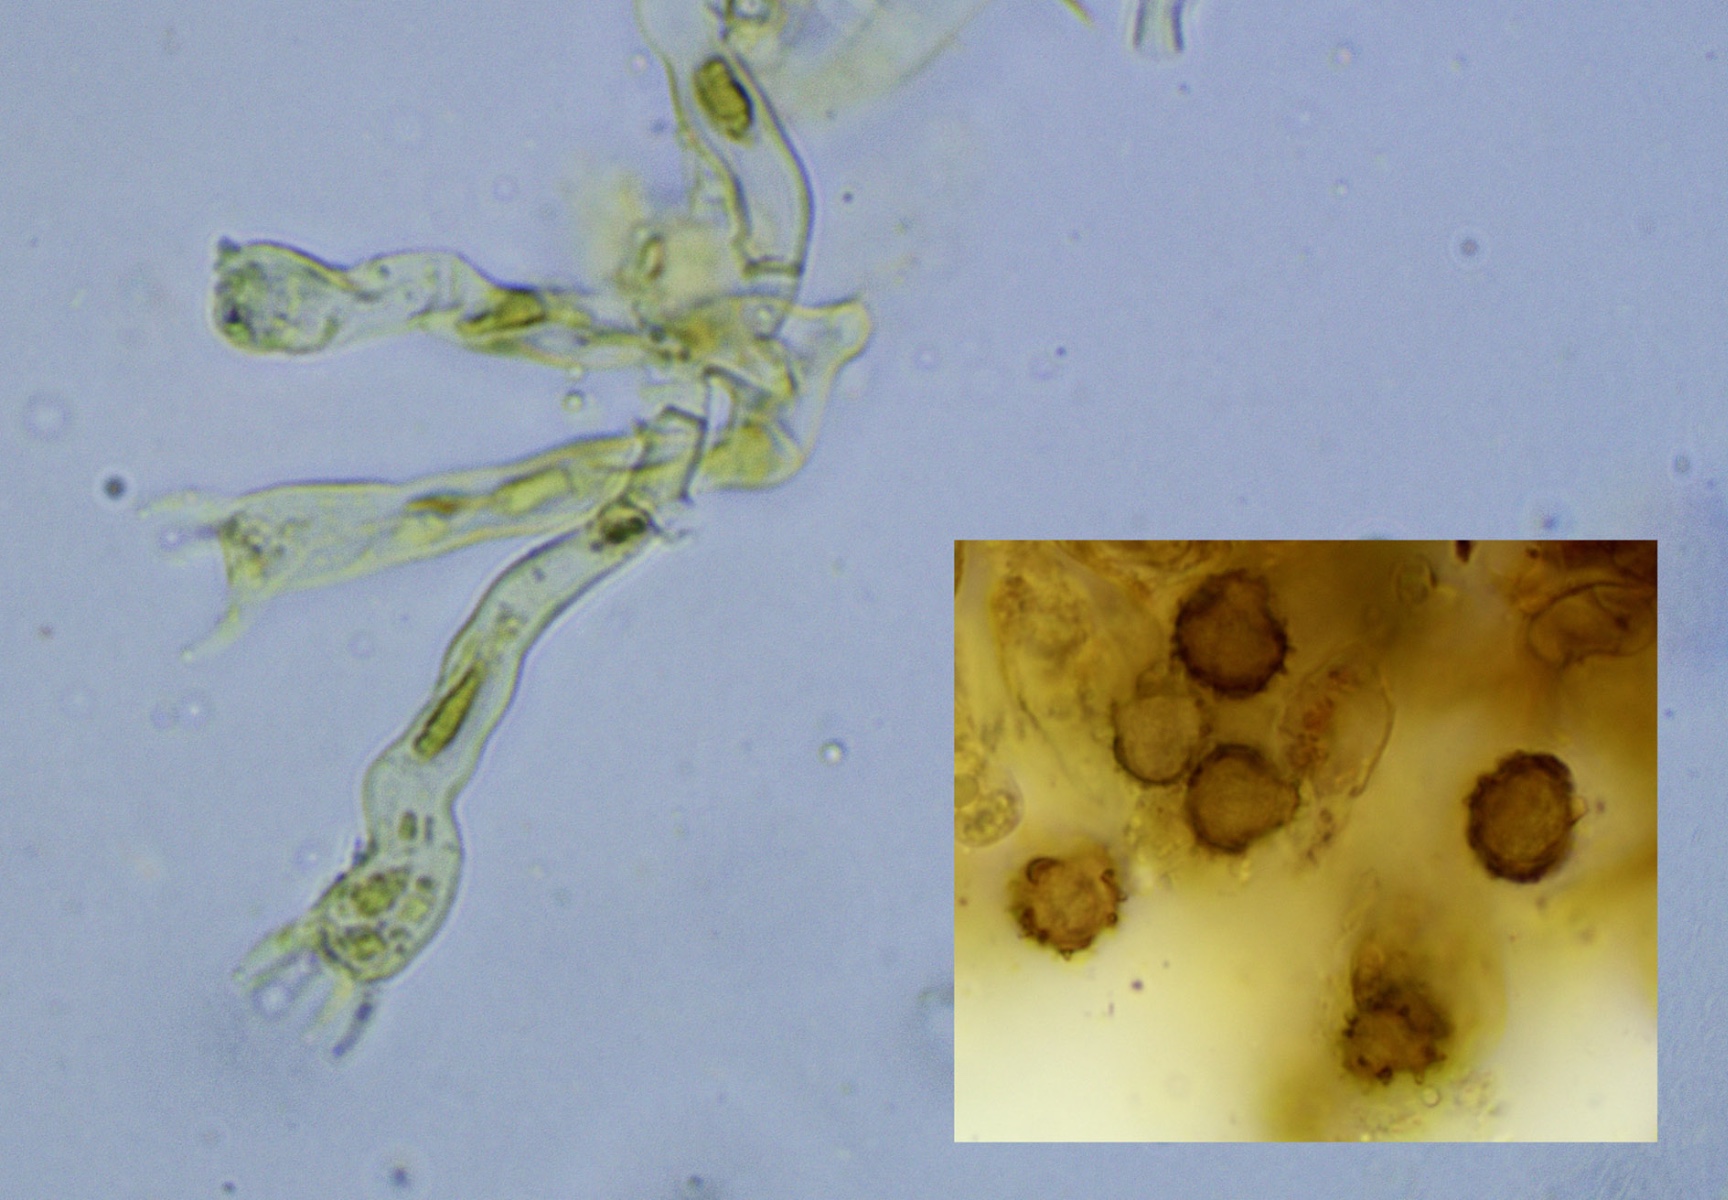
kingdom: Fungi
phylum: Basidiomycota
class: Agaricomycetes
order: Thelephorales
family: Thelephoraceae
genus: Tomentella
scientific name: Tomentella ferruginea
